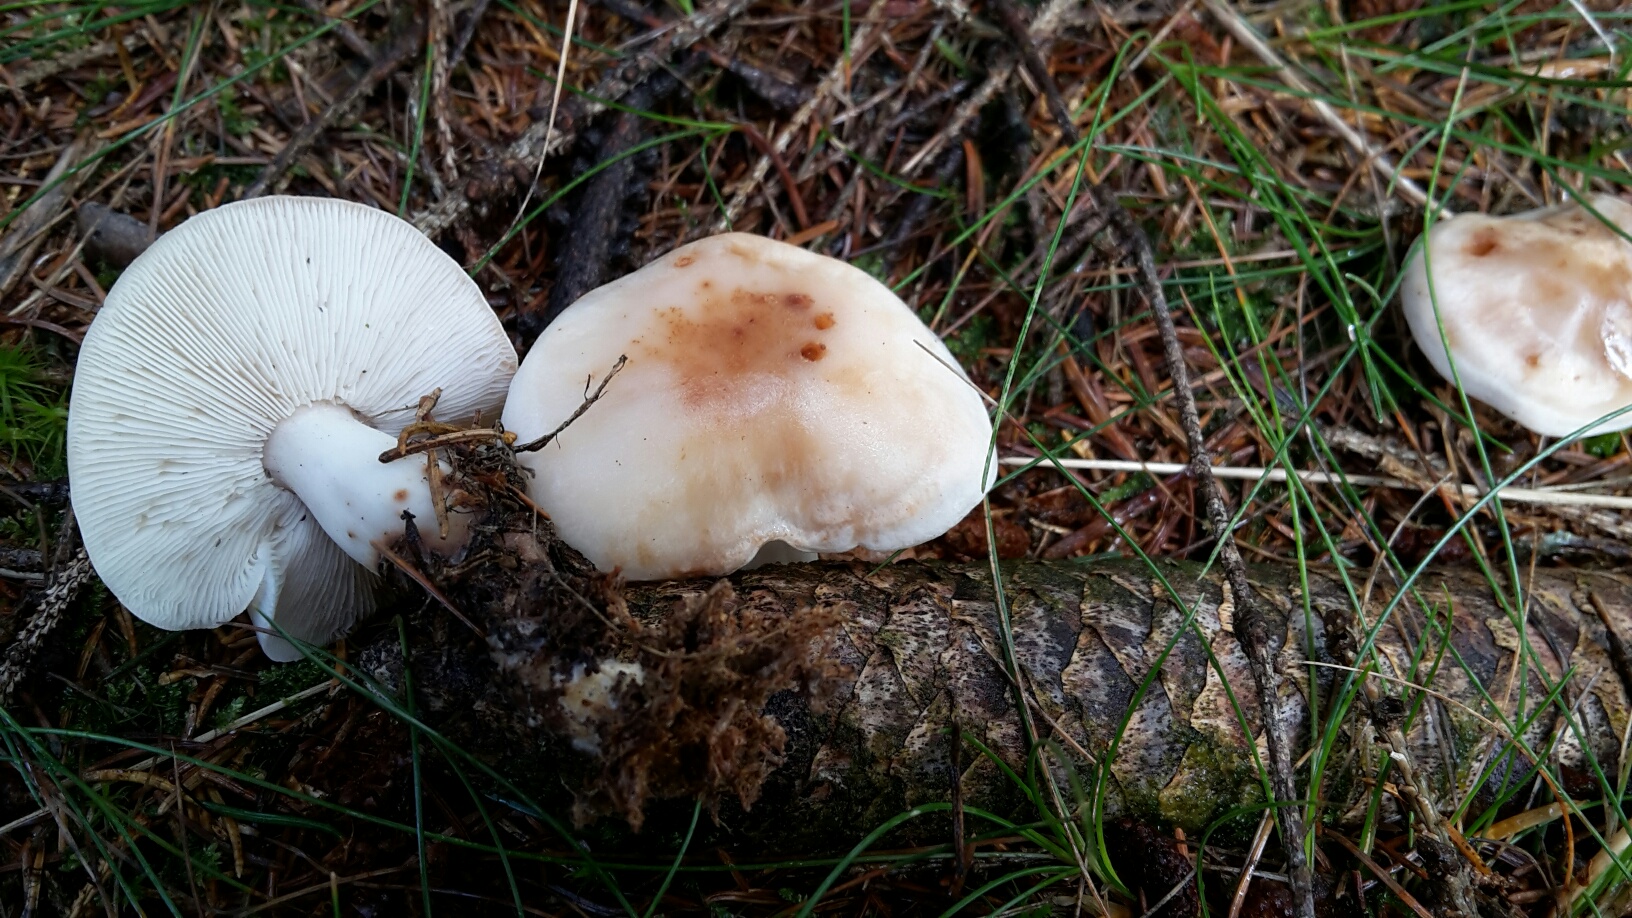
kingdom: Fungi
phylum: Basidiomycota
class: Agaricomycetes
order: Agaricales
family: Omphalotaceae
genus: Rhodocollybia
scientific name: Rhodocollybia maculata
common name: plettet fladhat
